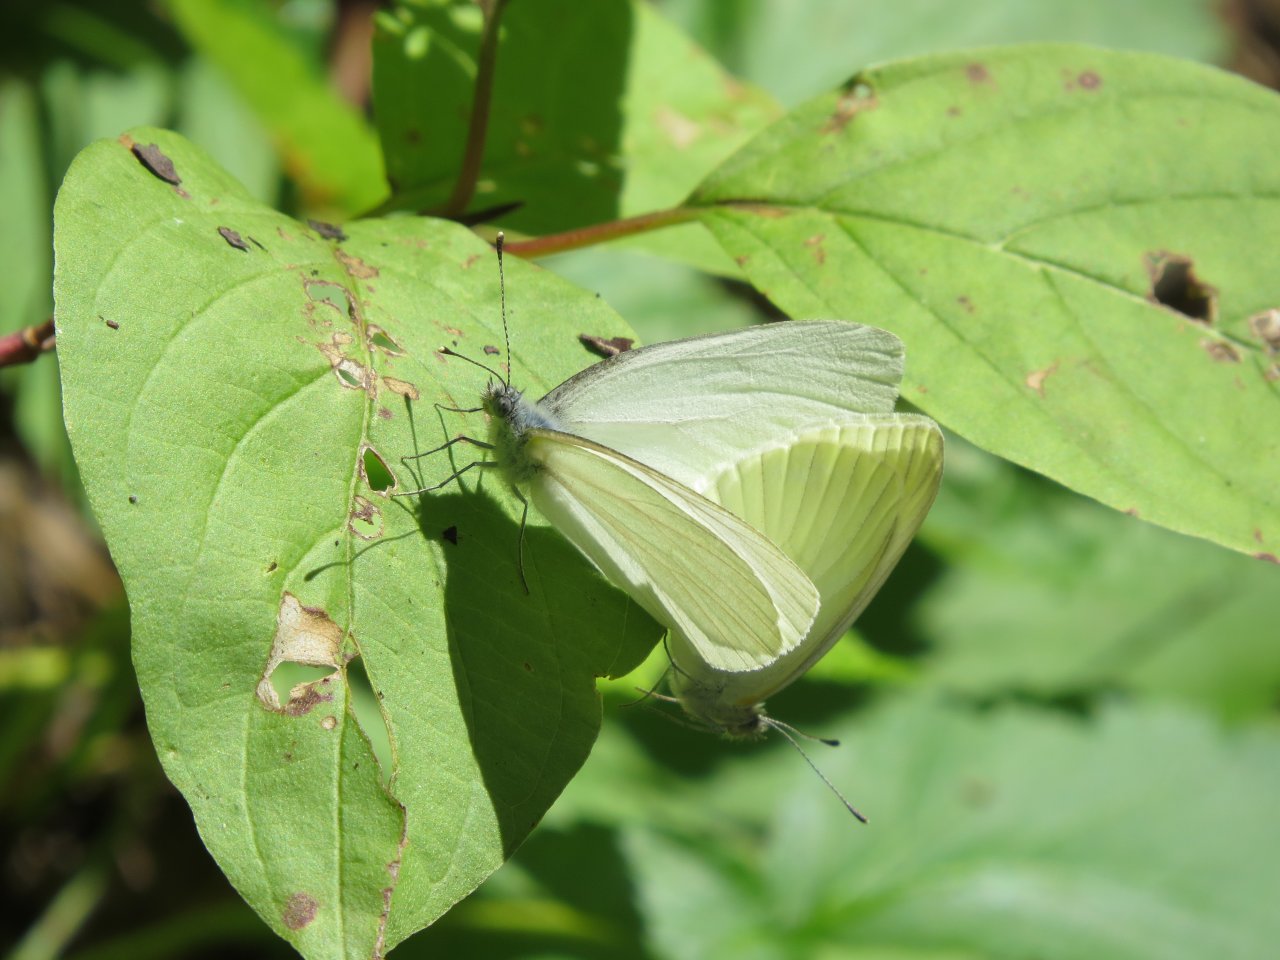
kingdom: Animalia
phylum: Arthropoda
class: Insecta
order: Lepidoptera
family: Pieridae
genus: Pieris
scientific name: Pieris oleracea
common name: Mustard White
